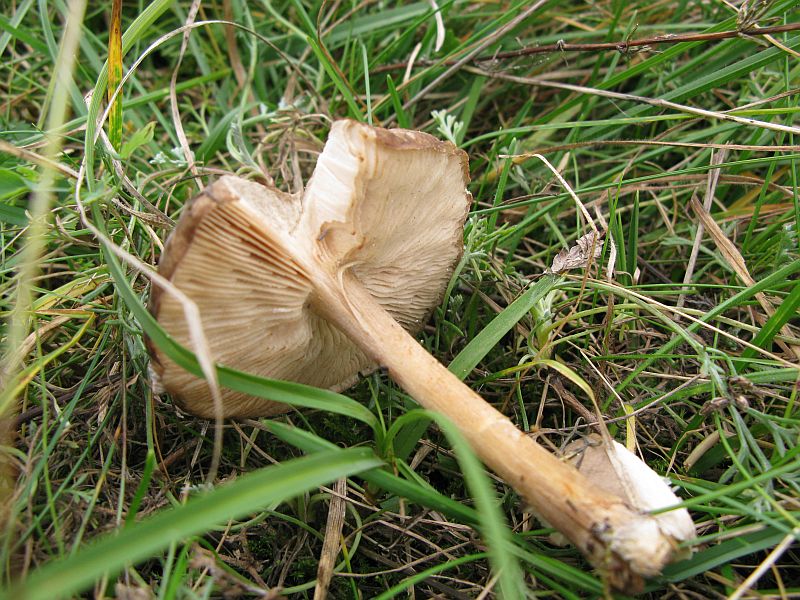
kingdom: Fungi
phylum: Basidiomycota
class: Agaricomycetes
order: Agaricales
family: Tricholomataceae
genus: Melanoleuca
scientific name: Melanoleuca exscissa
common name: gusten munkehat
